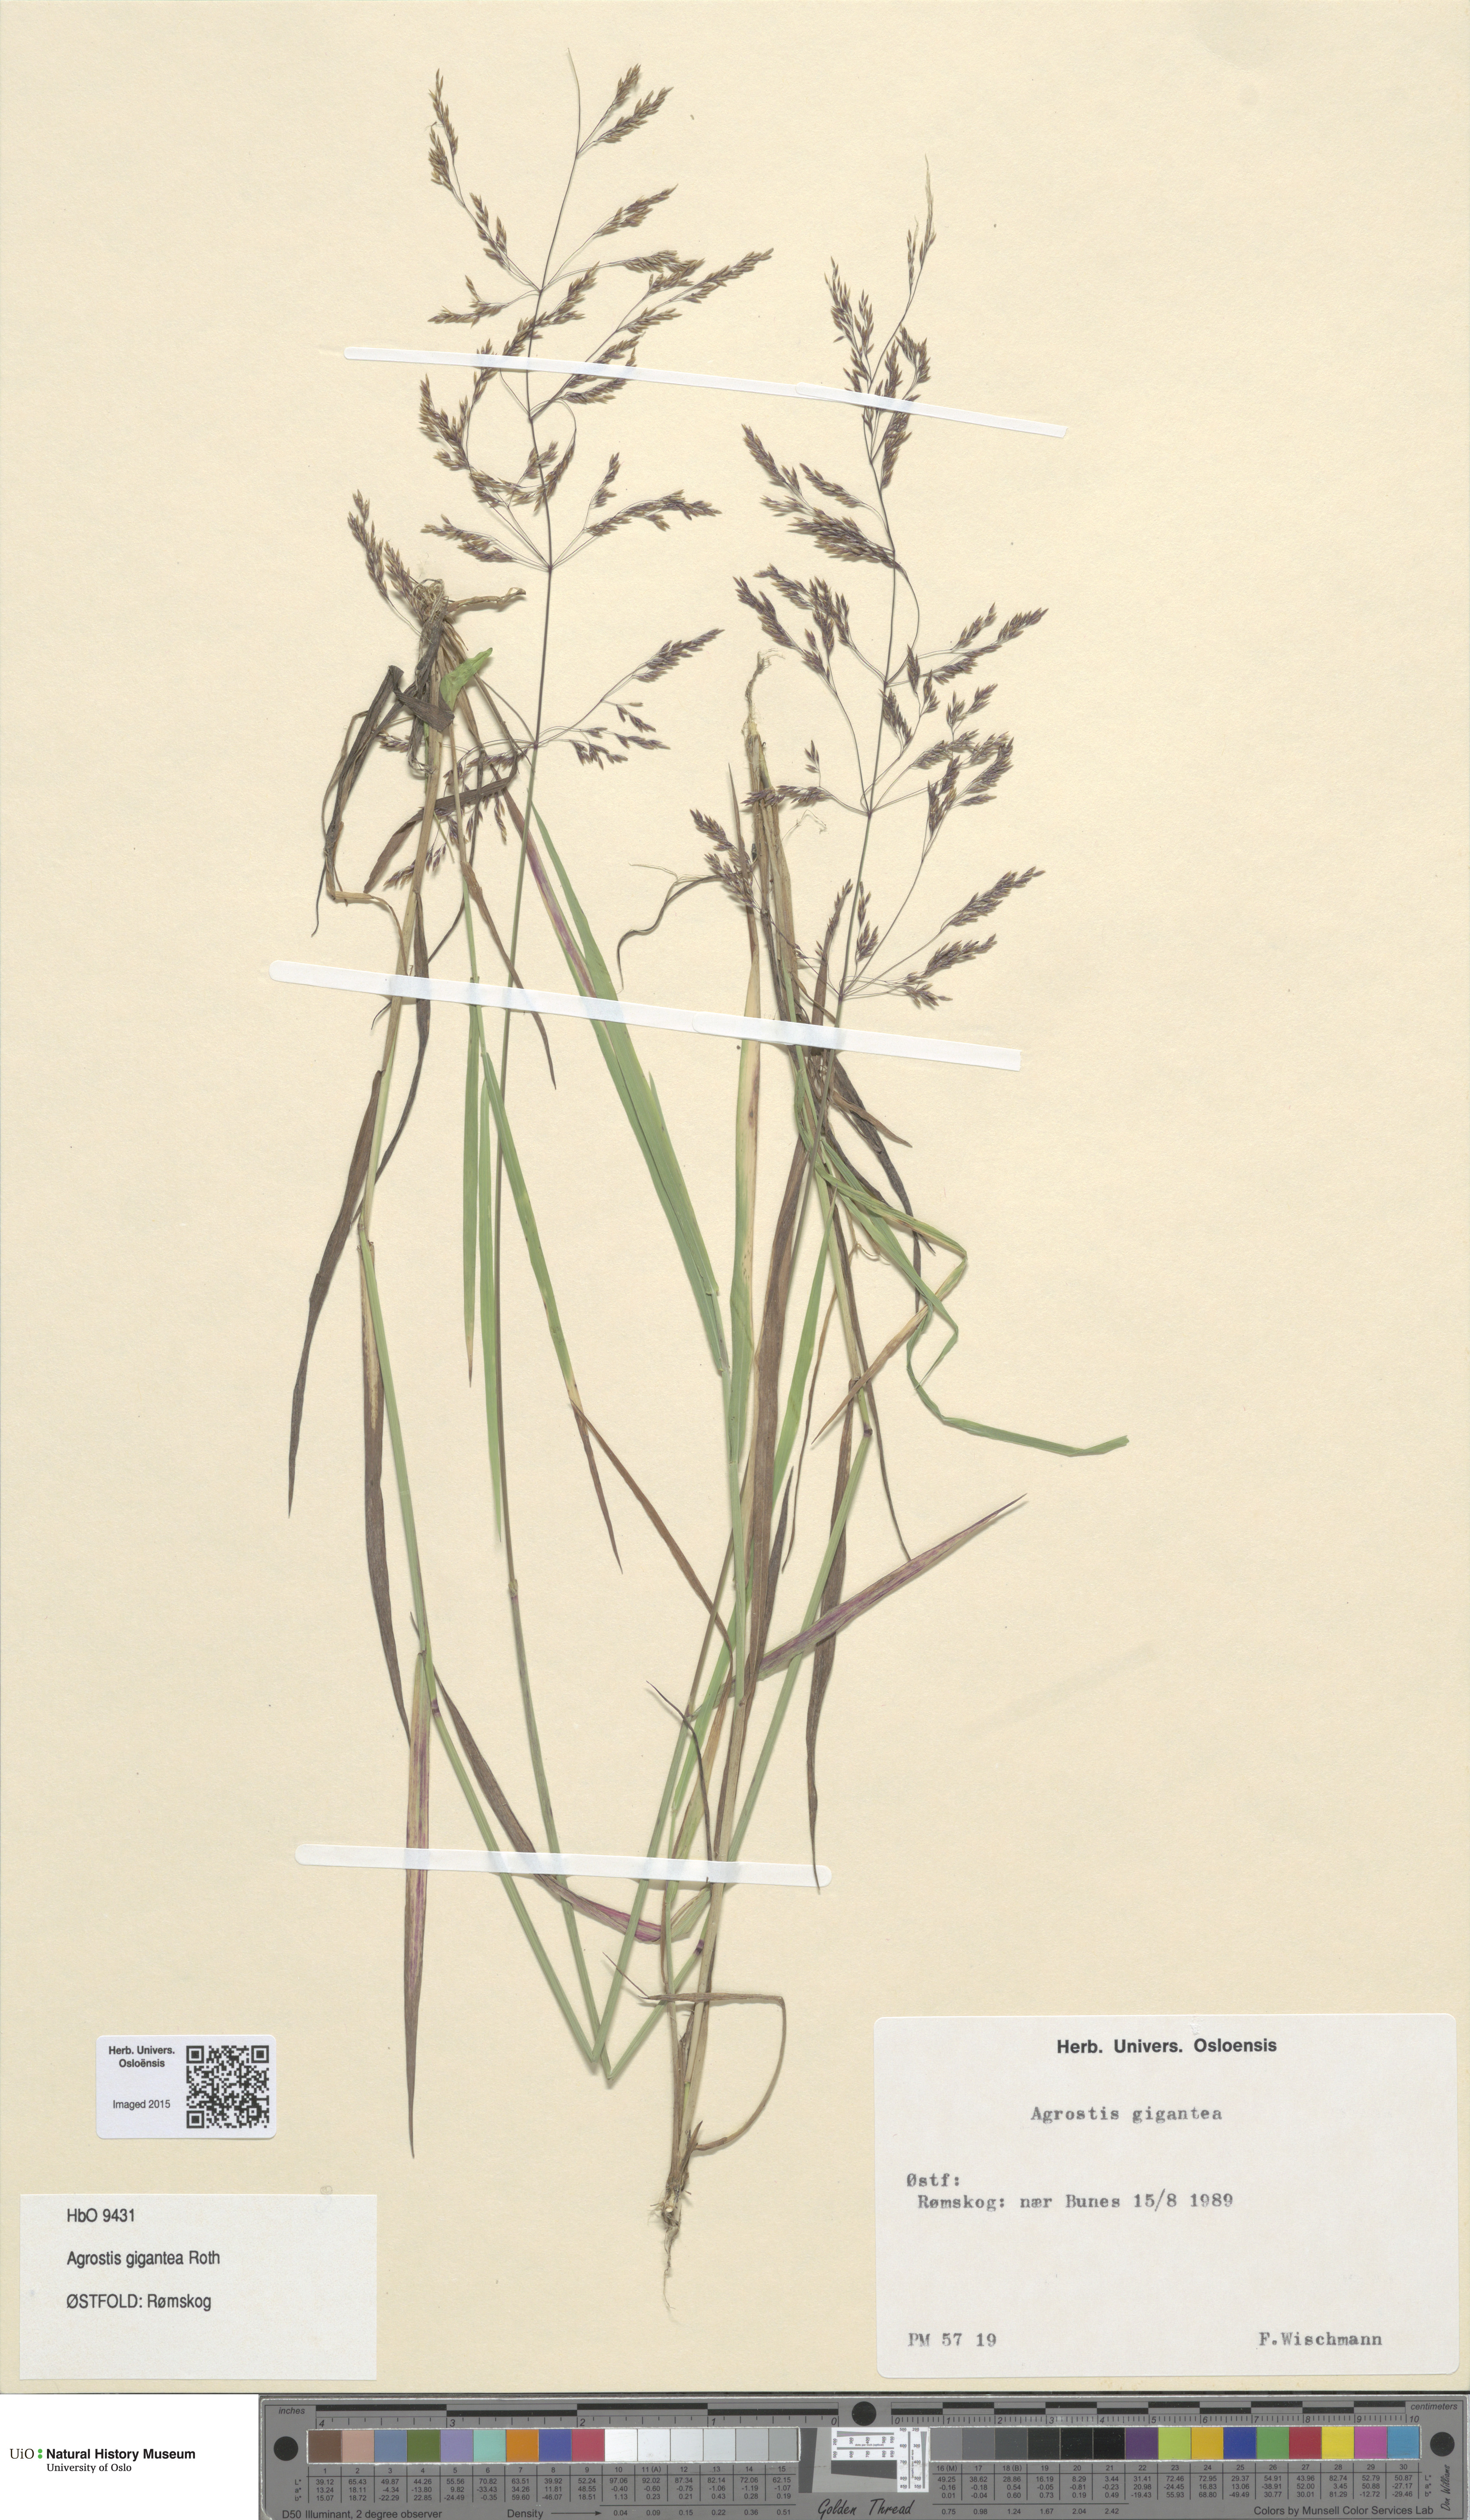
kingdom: Plantae
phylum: Tracheophyta
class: Liliopsida
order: Poales
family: Poaceae
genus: Agrostis
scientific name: Agrostis gigantea
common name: Black bent
